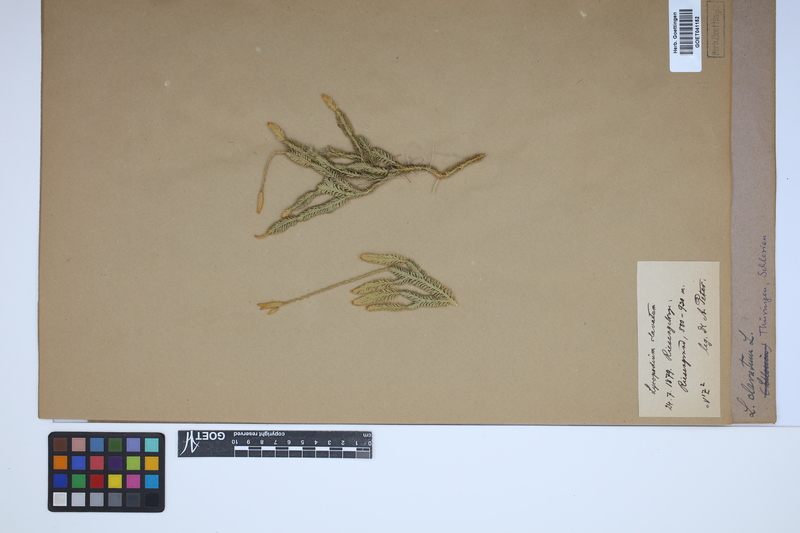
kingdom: Plantae
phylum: Tracheophyta
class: Lycopodiopsida
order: Lycopodiales
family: Lycopodiaceae
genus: Lycopodium
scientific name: Lycopodium clavatum
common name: Stag's-horn clubmoss
